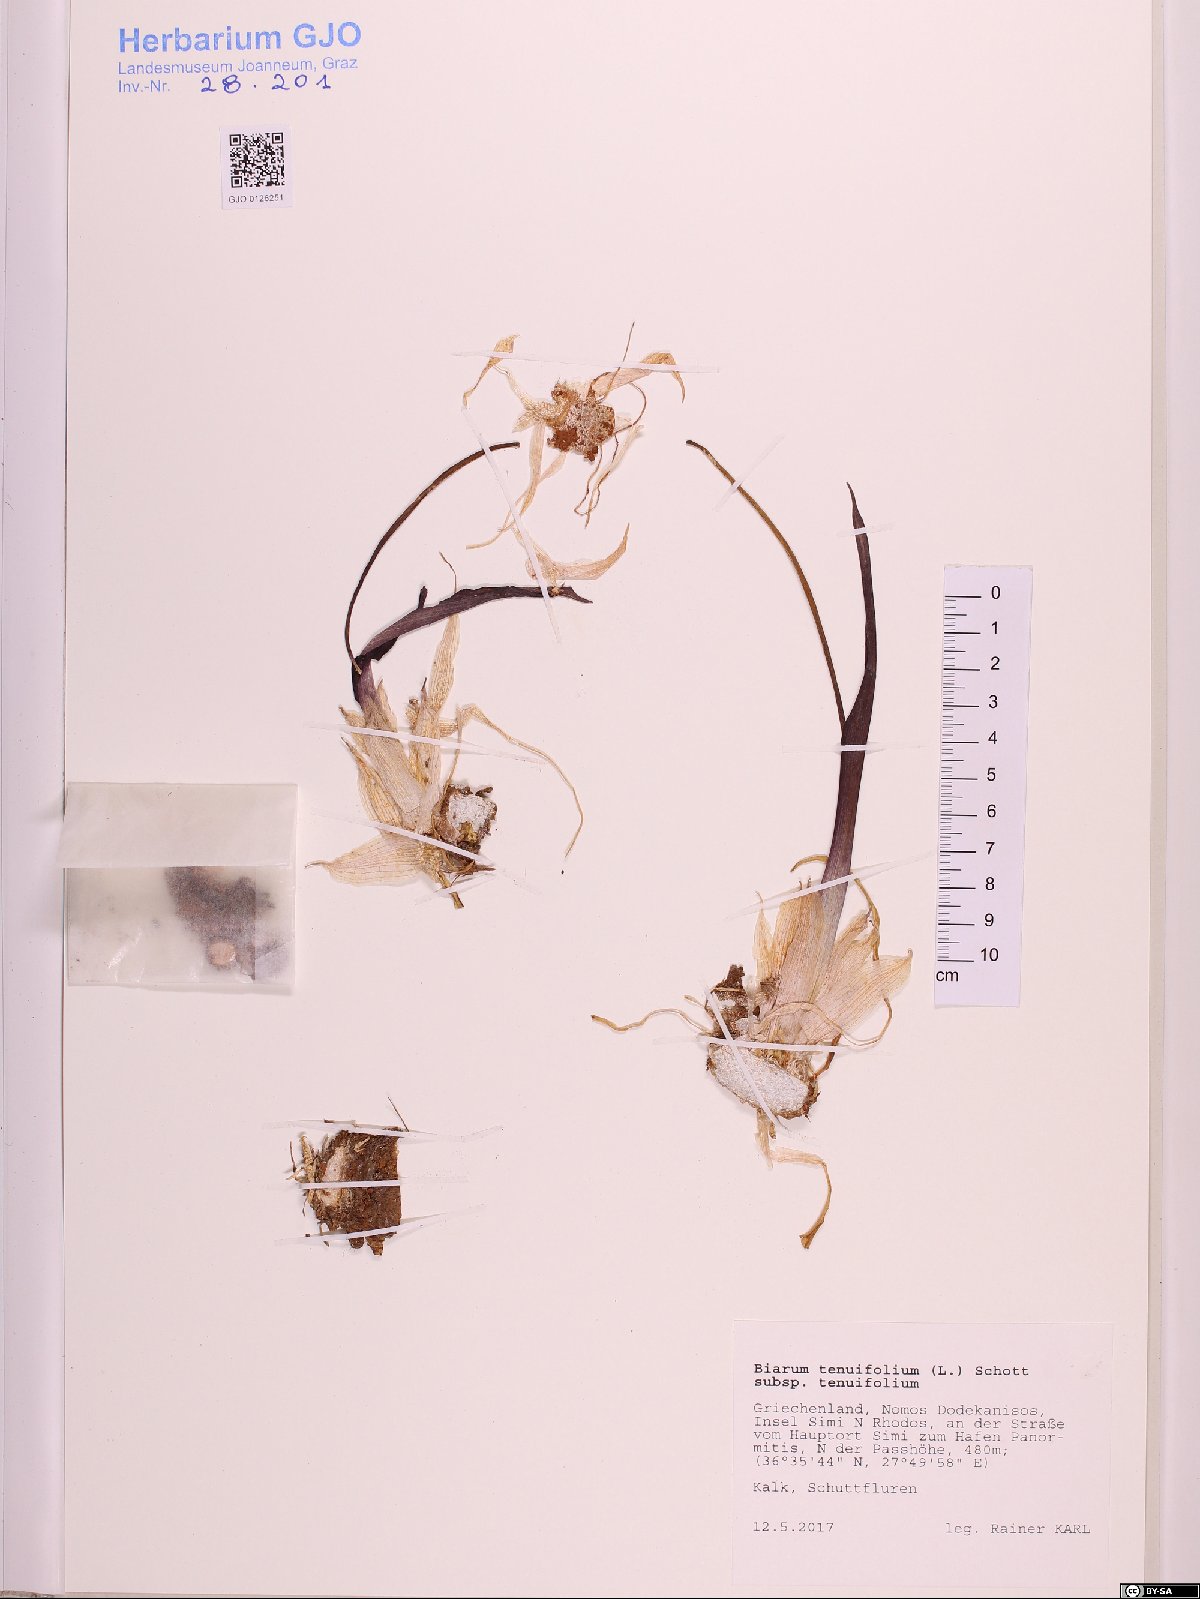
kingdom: Plantae
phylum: Tracheophyta
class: Liliopsida
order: Alismatales
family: Araceae
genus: Biarum
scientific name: Biarum tenuifolium
